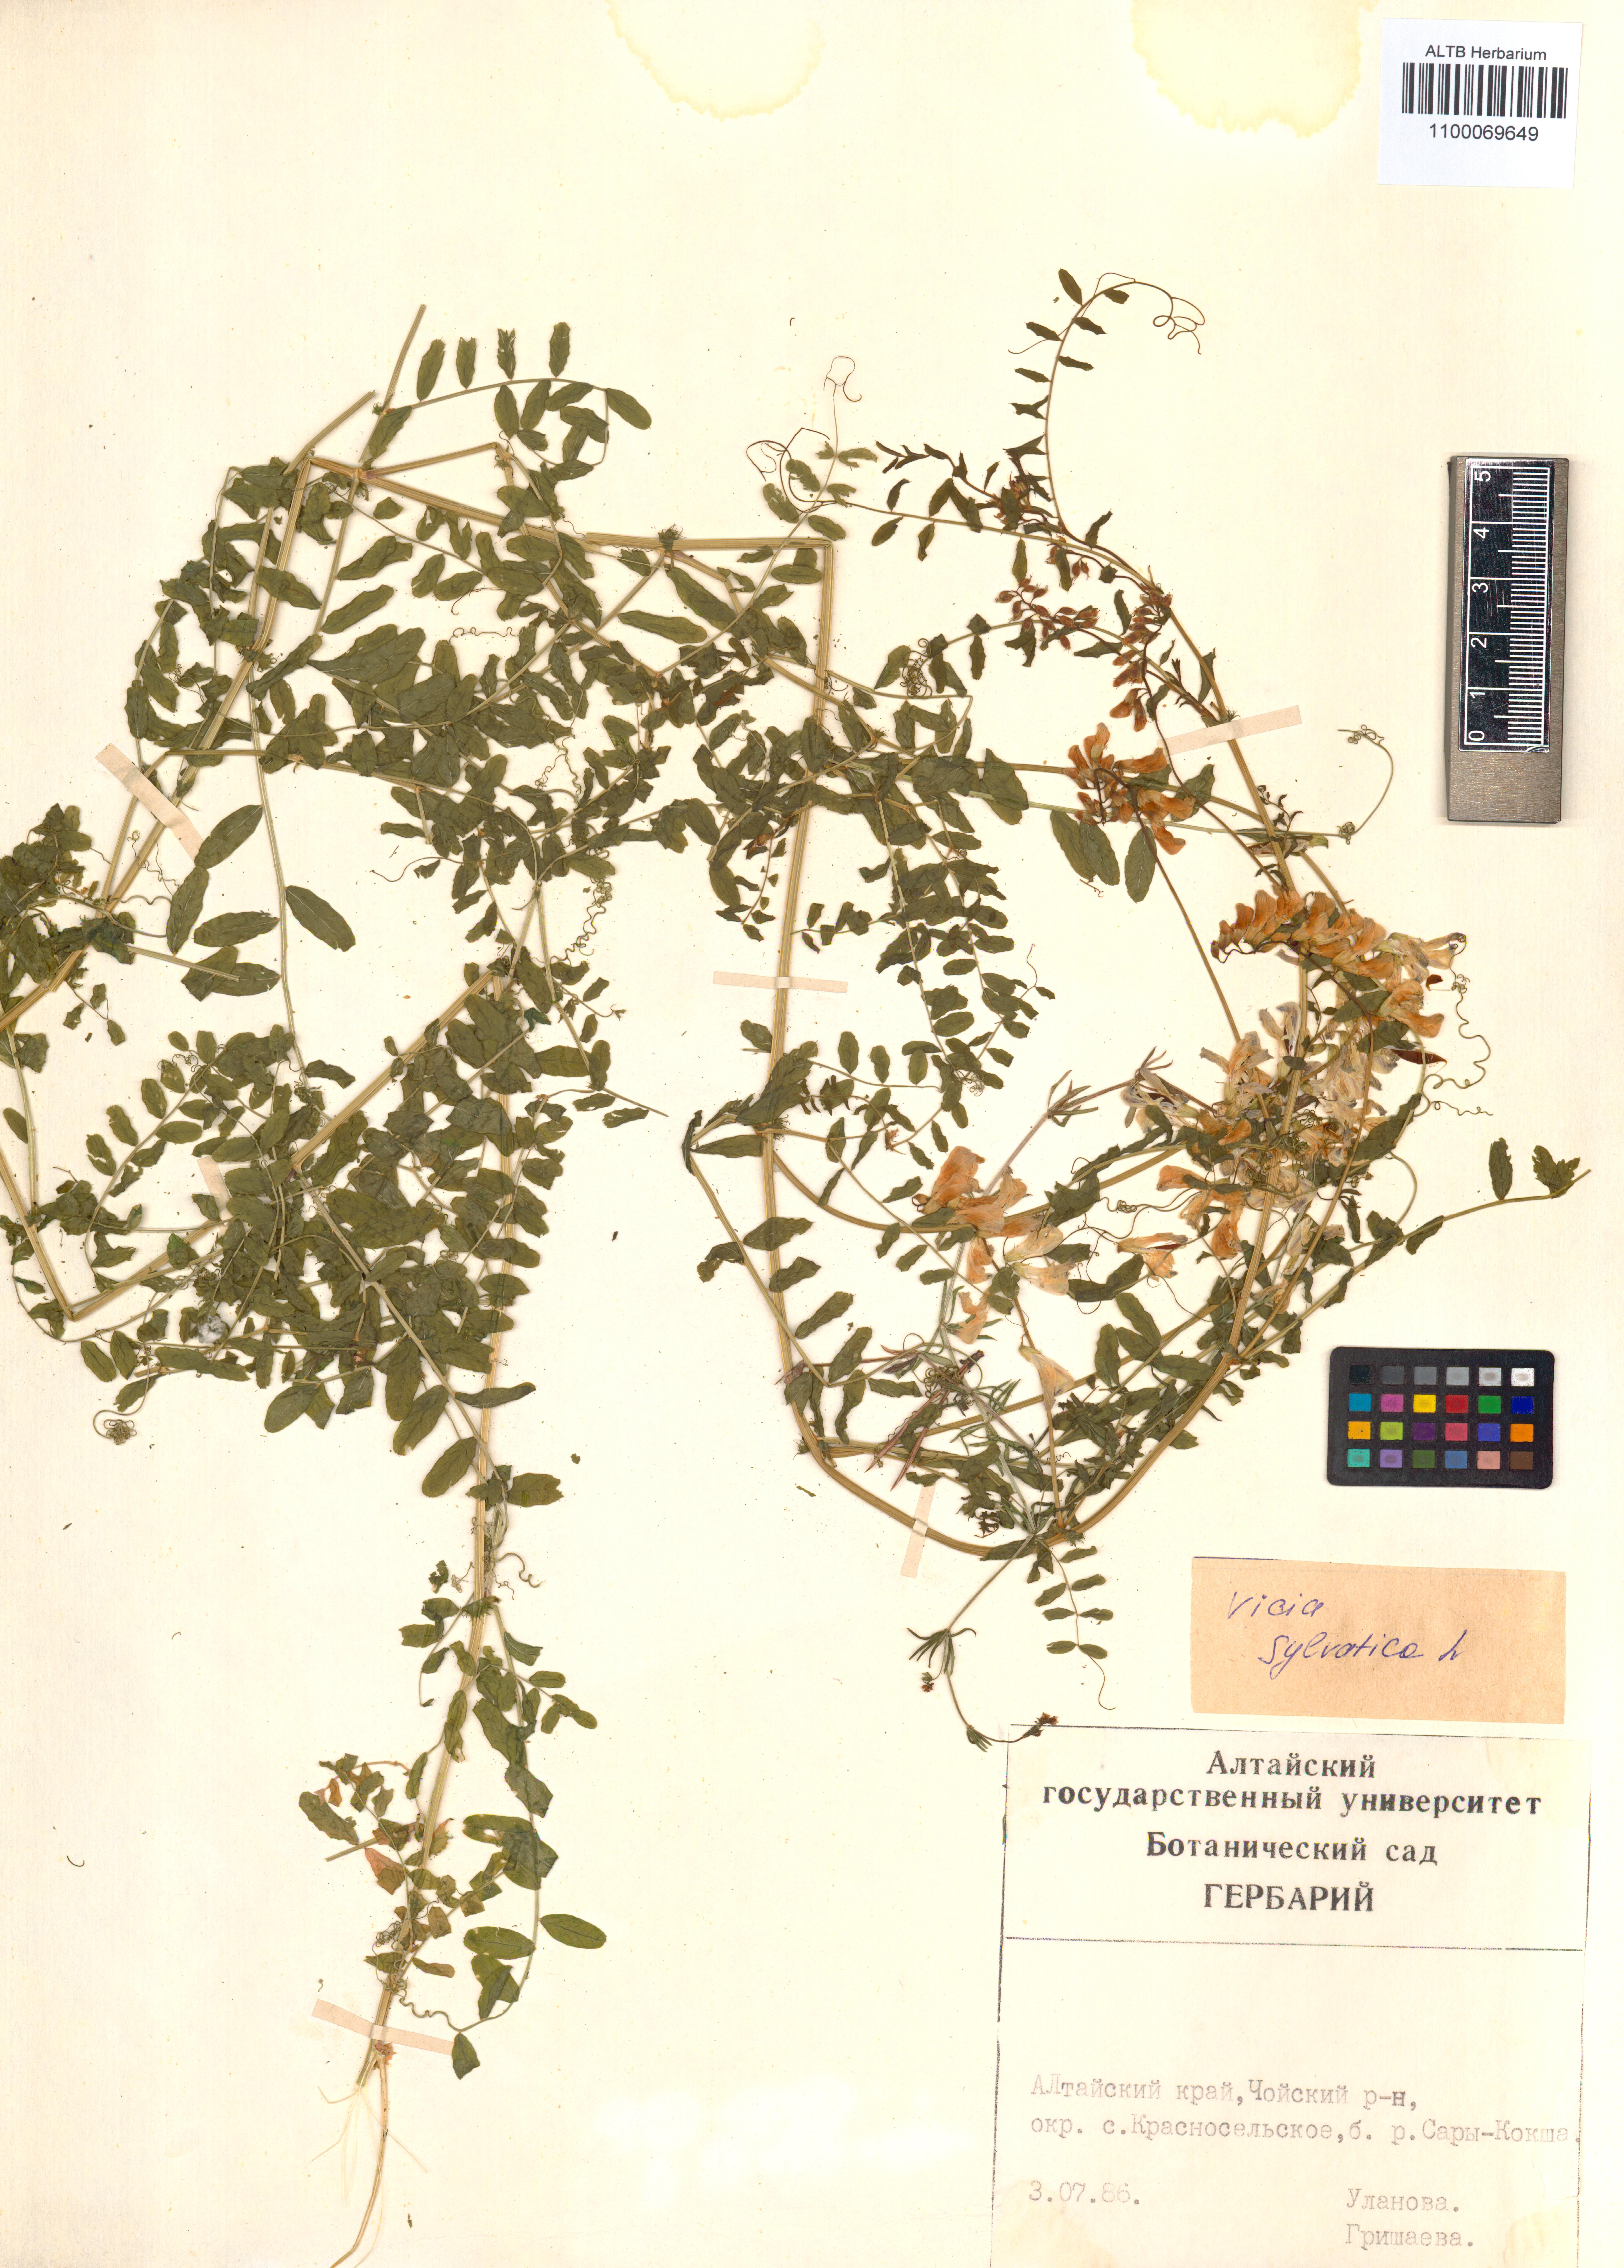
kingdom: Plantae
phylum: Tracheophyta
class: Magnoliopsida
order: Fabales
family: Fabaceae
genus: Vicia
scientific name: Vicia bakeri
